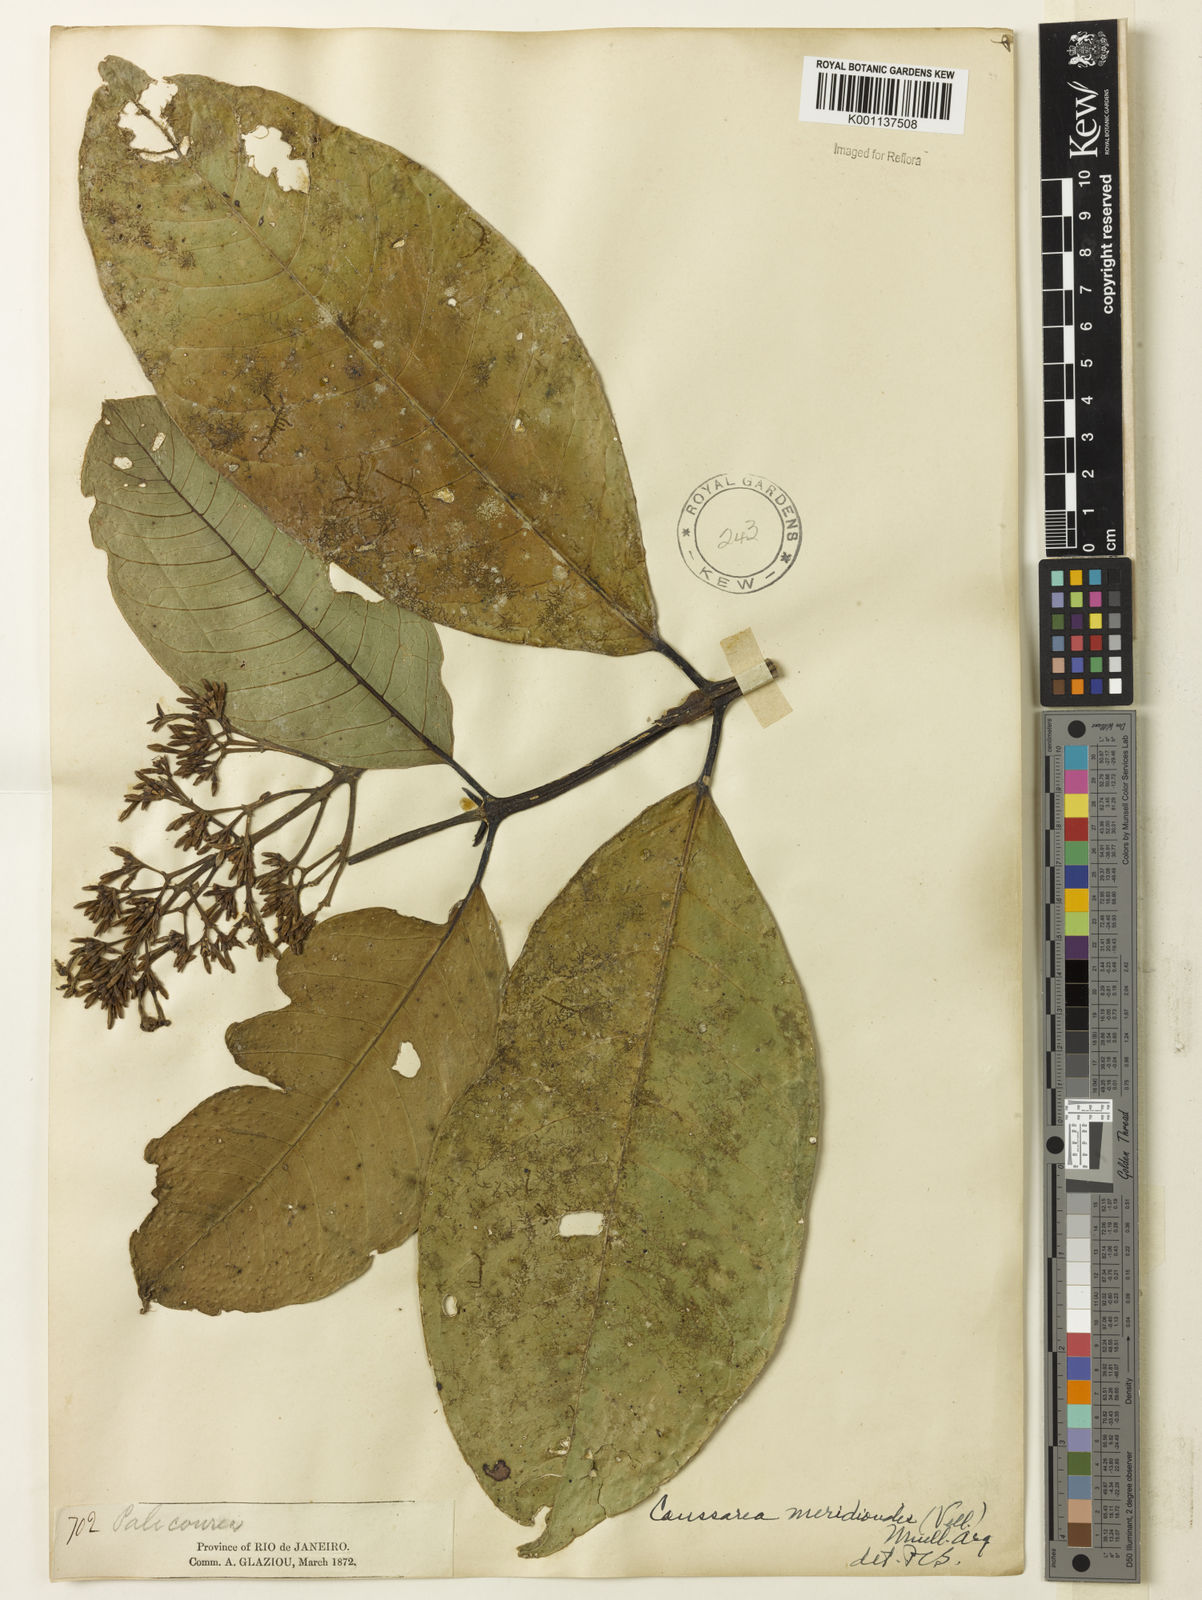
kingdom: Plantae
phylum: Tracheophyta
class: Magnoliopsida
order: Gentianales
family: Rubiaceae
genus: Coussarea
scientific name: Coussarea
